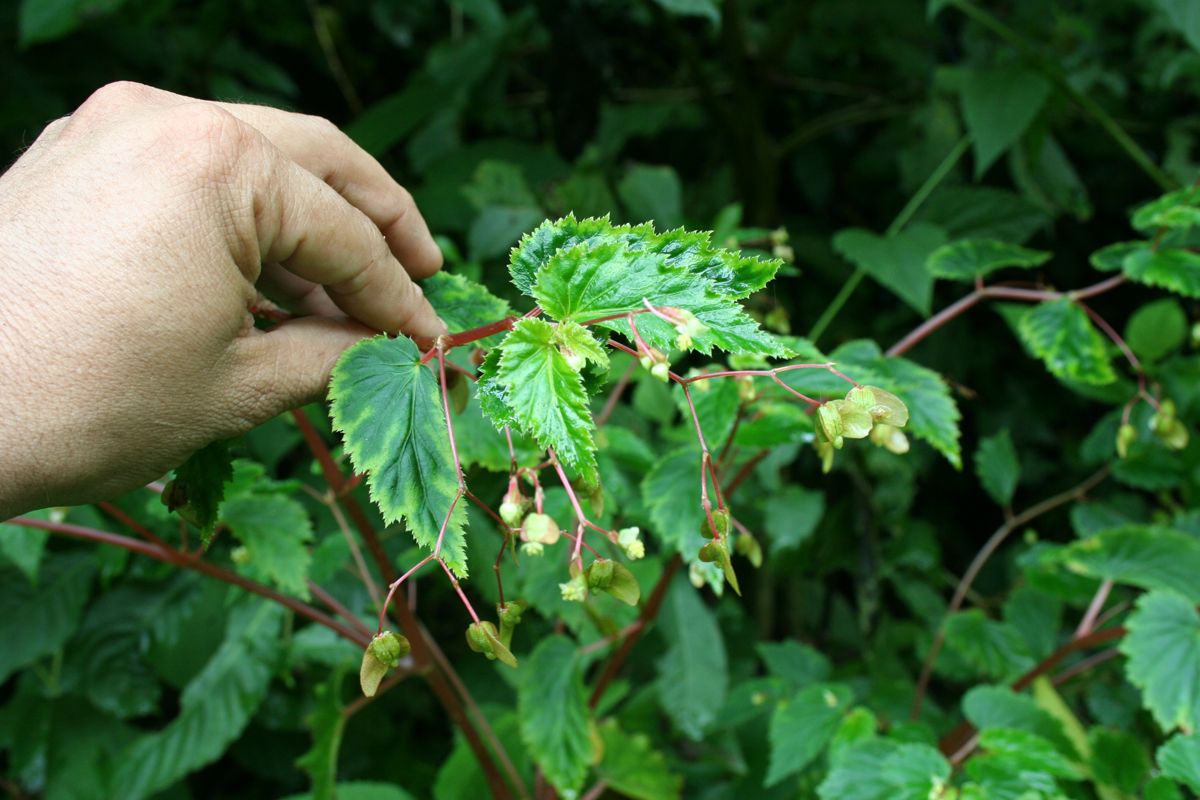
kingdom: Plantae
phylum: Tracheophyta
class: Magnoliopsida
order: Cucurbitales
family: Begoniaceae
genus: Begonia
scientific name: Begonia humilis
